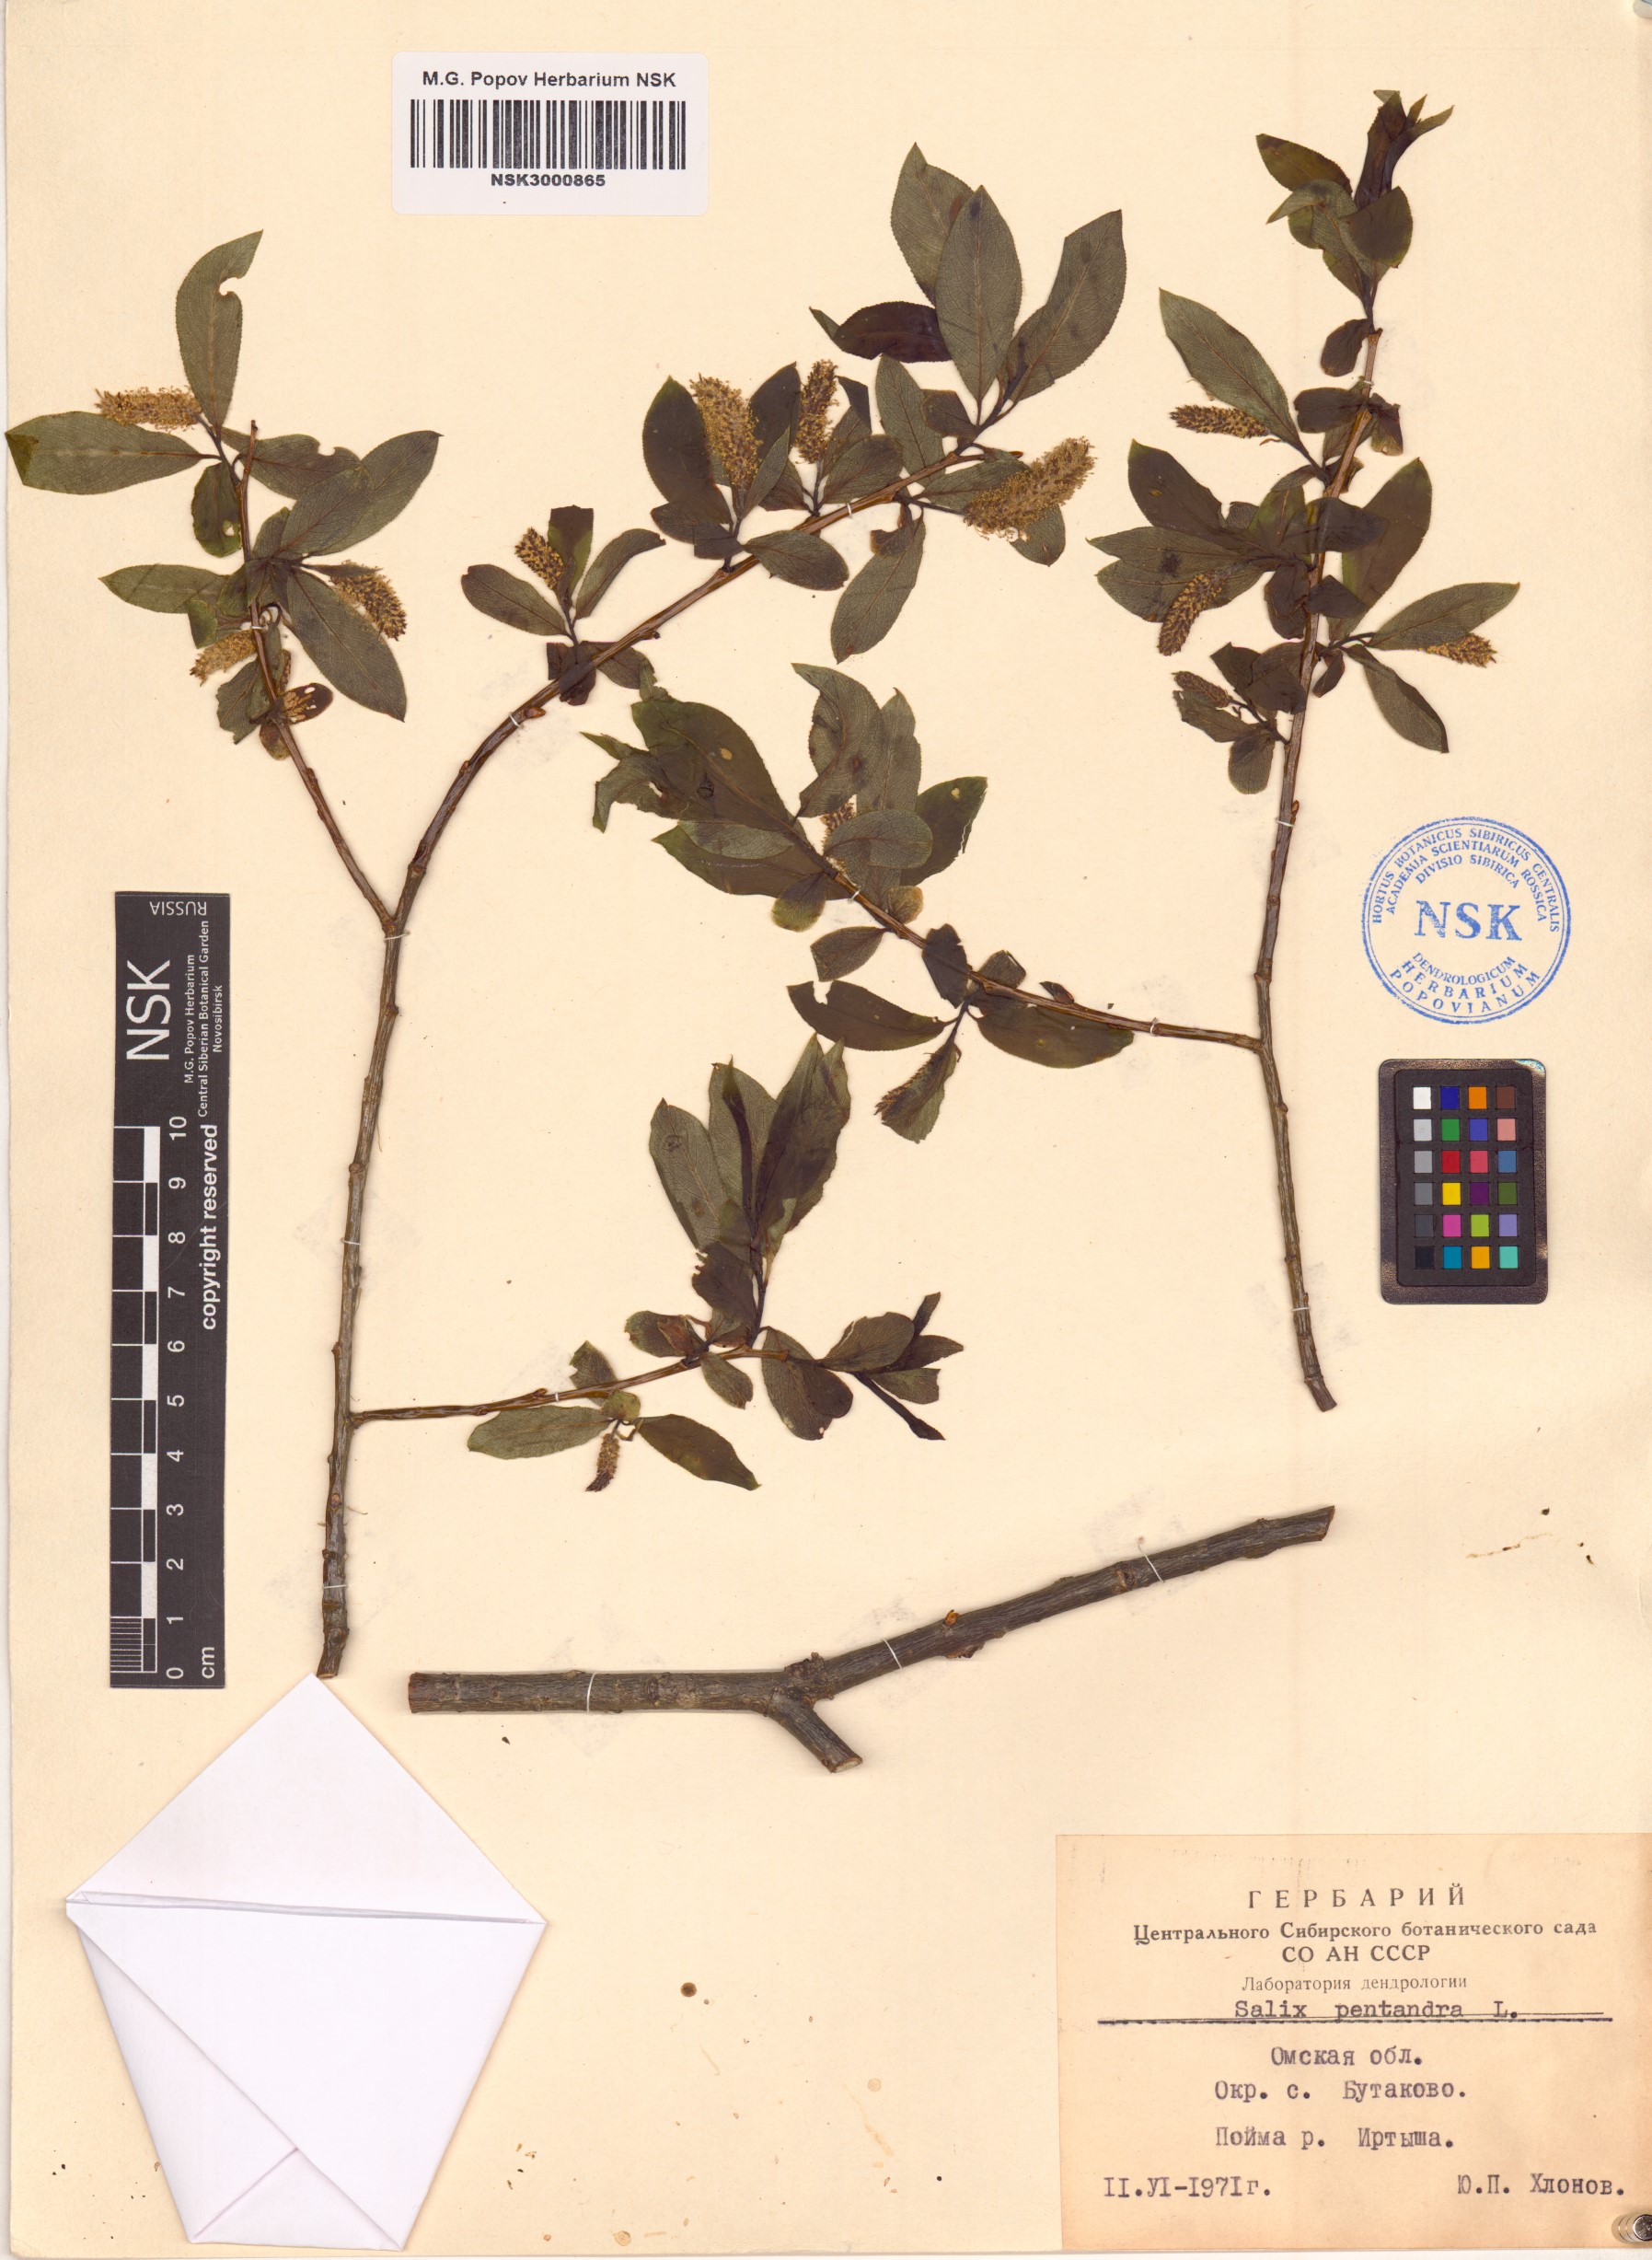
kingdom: Plantae
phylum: Tracheophyta
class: Magnoliopsida
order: Malpighiales
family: Salicaceae
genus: Salix
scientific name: Salix pentandra
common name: Bay willow
